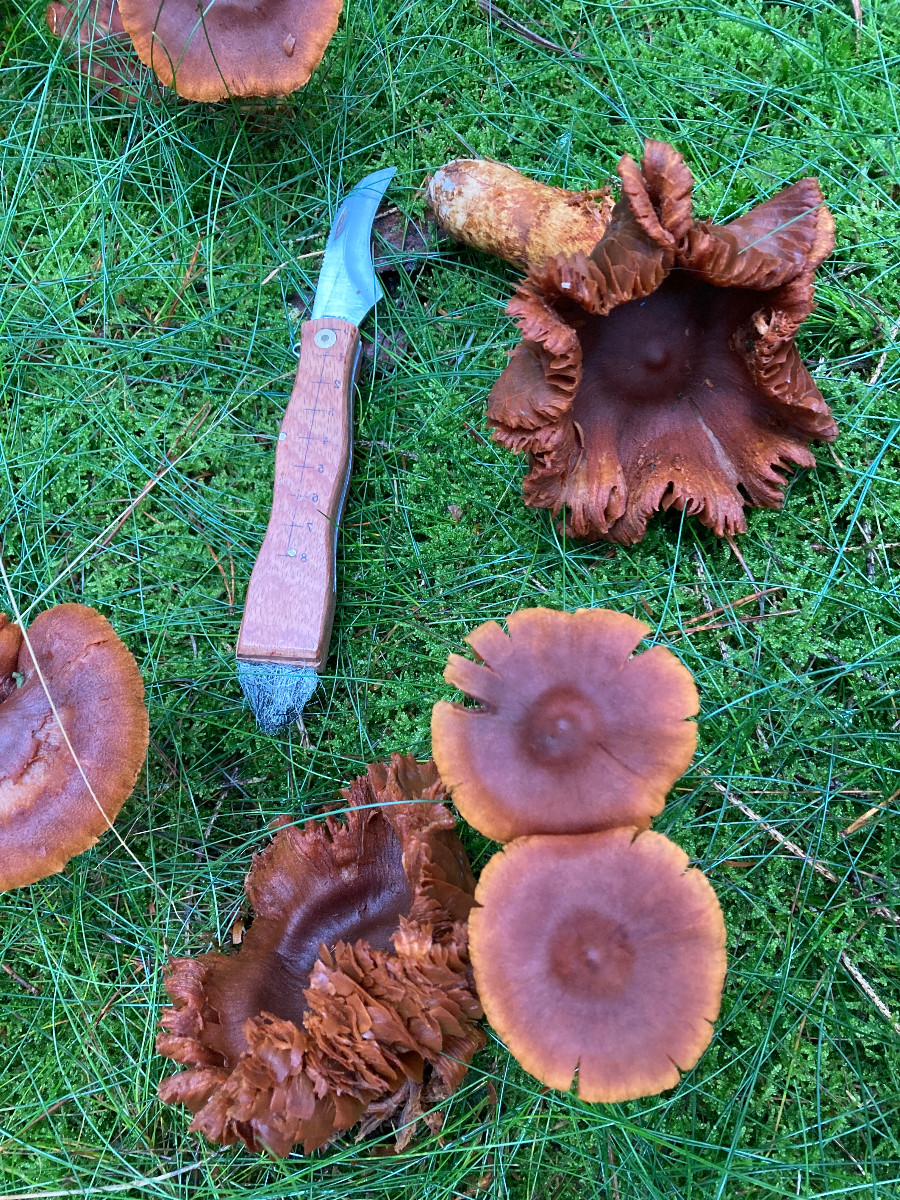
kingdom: Fungi
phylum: Basidiomycota
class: Agaricomycetes
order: Agaricales
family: Cortinariaceae
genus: Cortinarius
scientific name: Cortinarius rubellus
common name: puklet gift-slørhat
